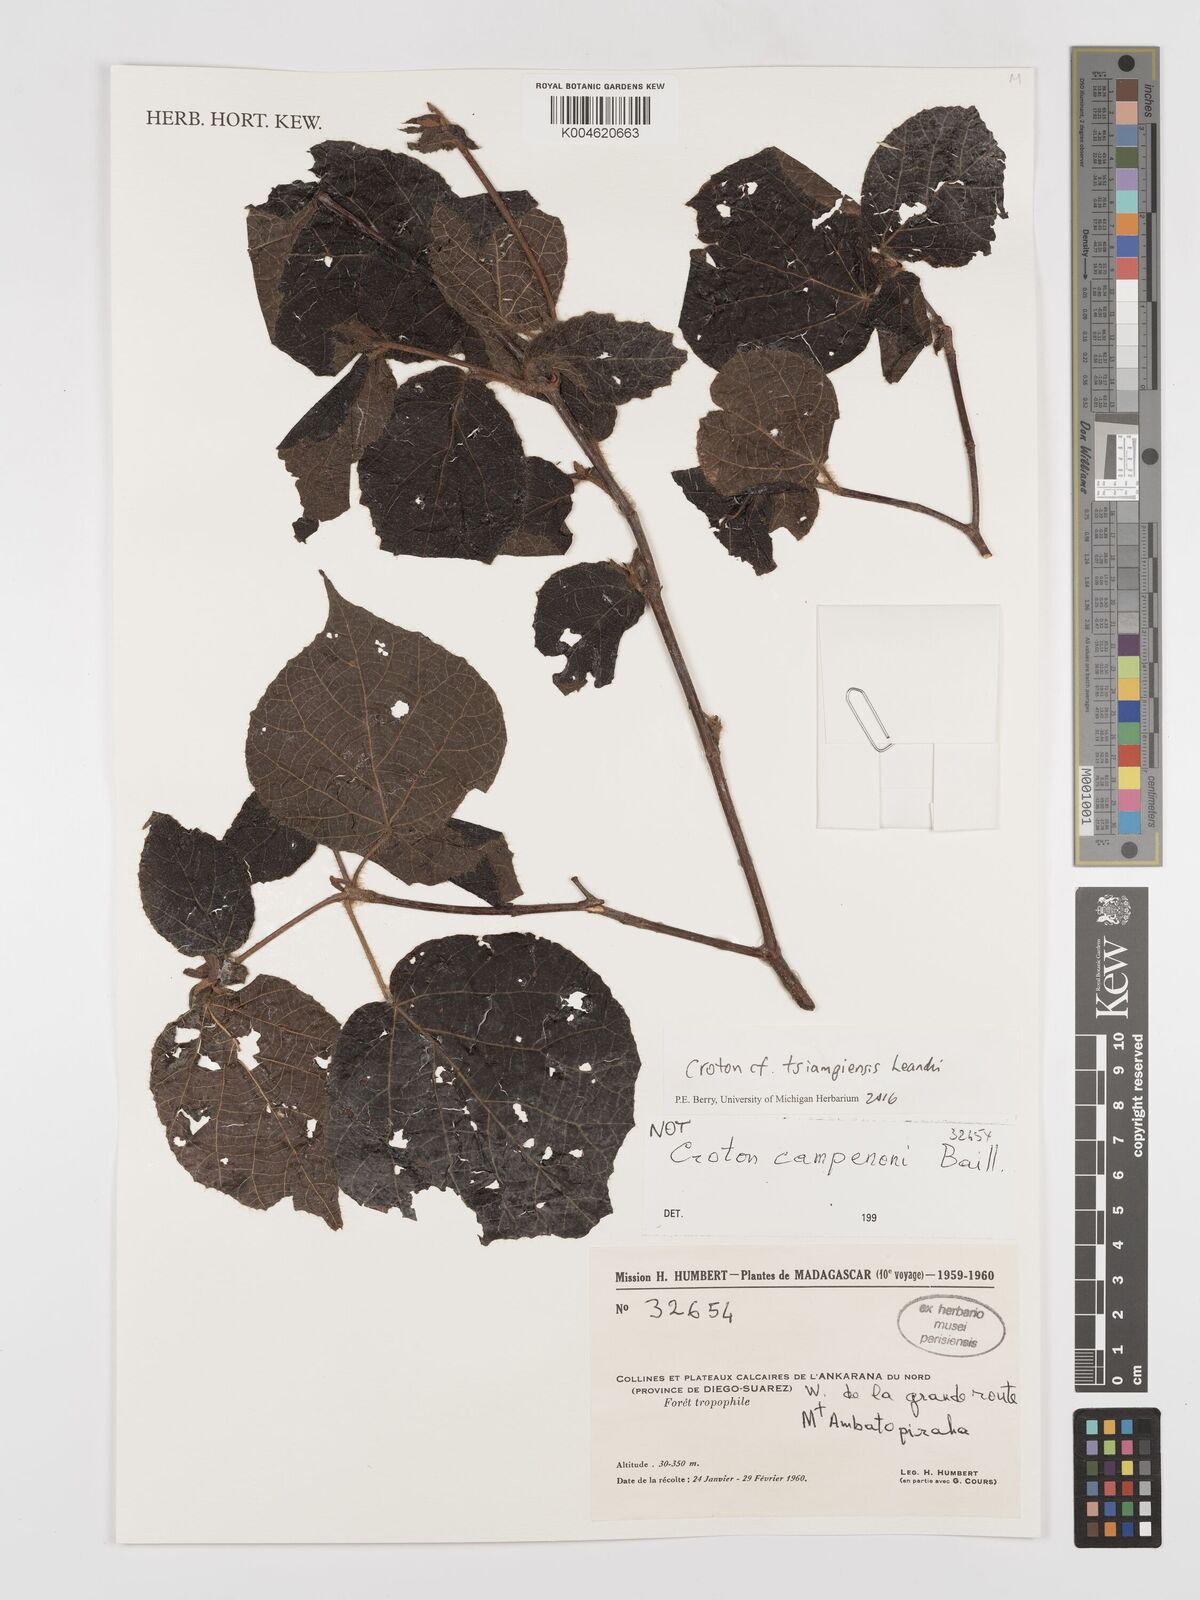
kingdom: Plantae
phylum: Tracheophyta
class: Magnoliopsida
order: Malpighiales
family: Euphorbiaceae
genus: Croton
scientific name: Croton tsiampiensis
